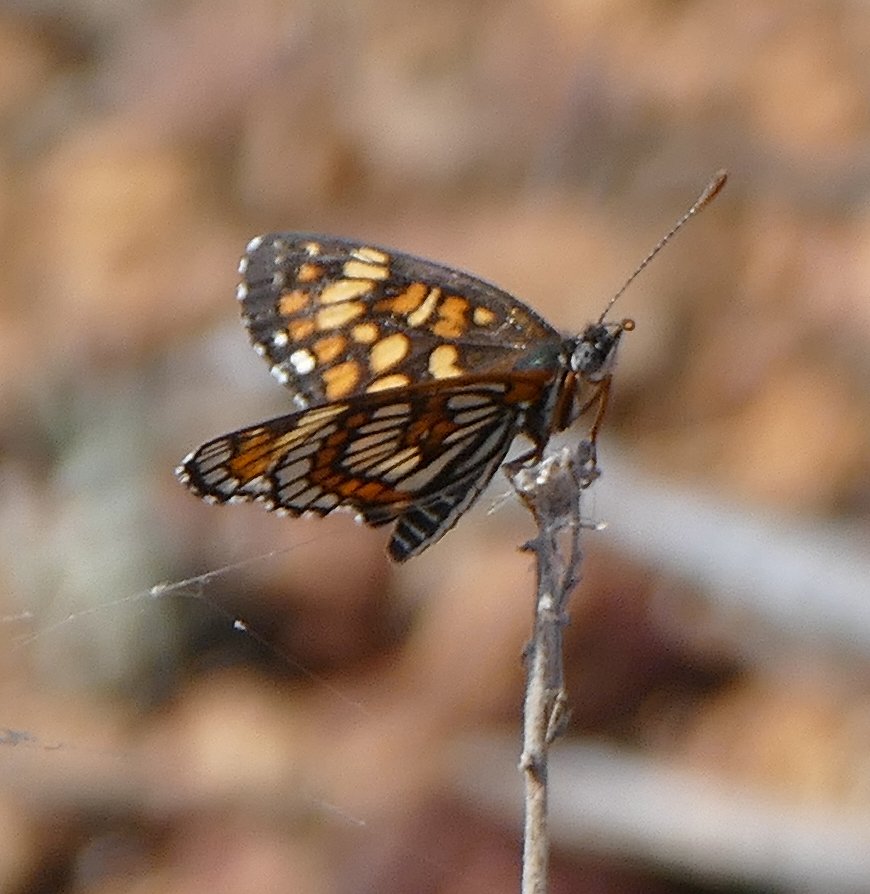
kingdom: Animalia
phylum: Arthropoda
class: Insecta
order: Lepidoptera
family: Nymphalidae
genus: Thessalia
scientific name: Thessalia theona
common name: Theona Checkerspot
